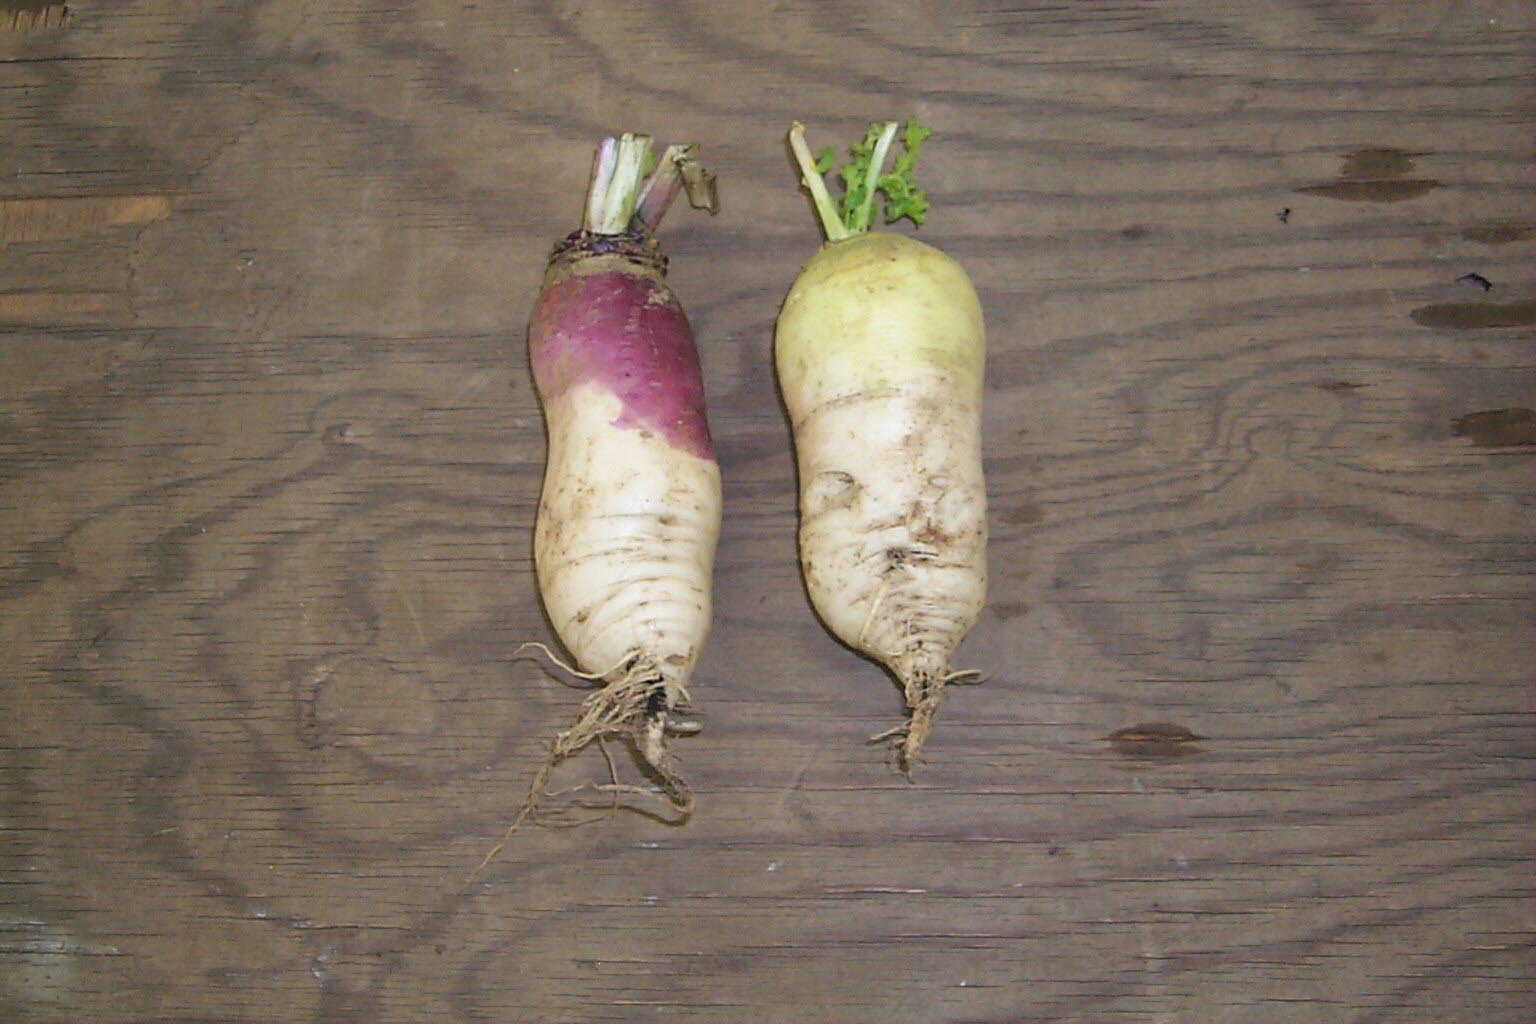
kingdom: Plantae
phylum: Tracheophyta
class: Magnoliopsida
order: Brassicales
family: Brassicaceae
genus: Brassica
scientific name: Brassica rapa
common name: Field mustard
